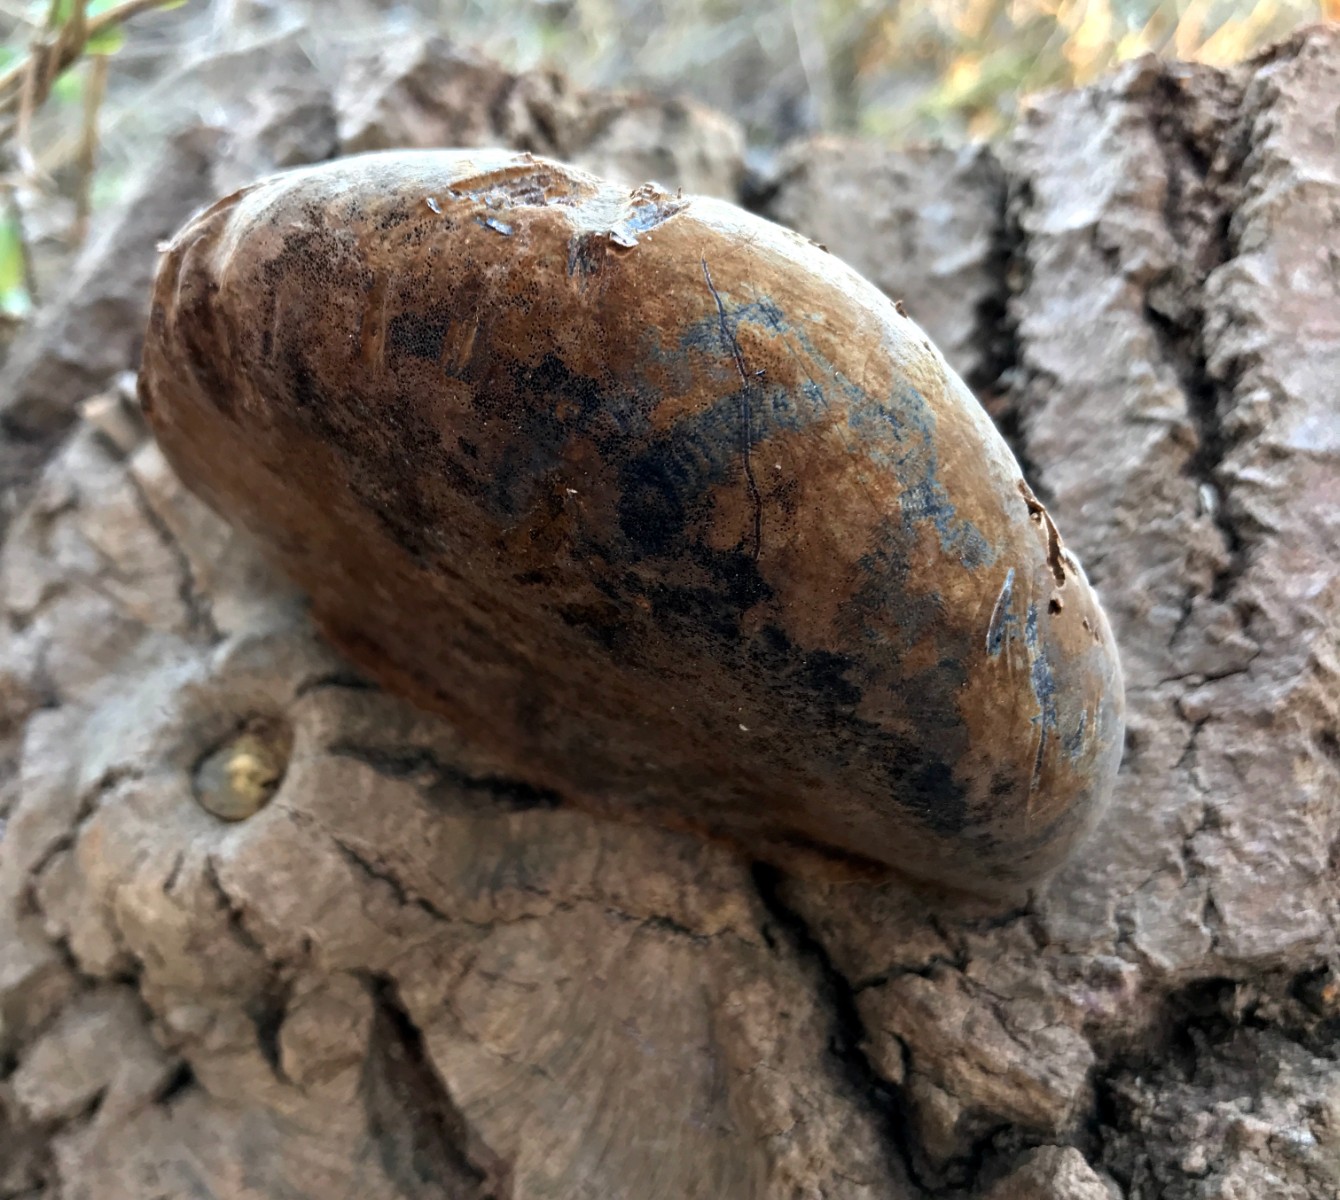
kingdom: Fungi
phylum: Basidiomycota
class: Agaricomycetes
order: Hymenochaetales
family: Hymenochaetaceae
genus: Phellinus
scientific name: Phellinus populicola
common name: poppel-ildporesvamp
